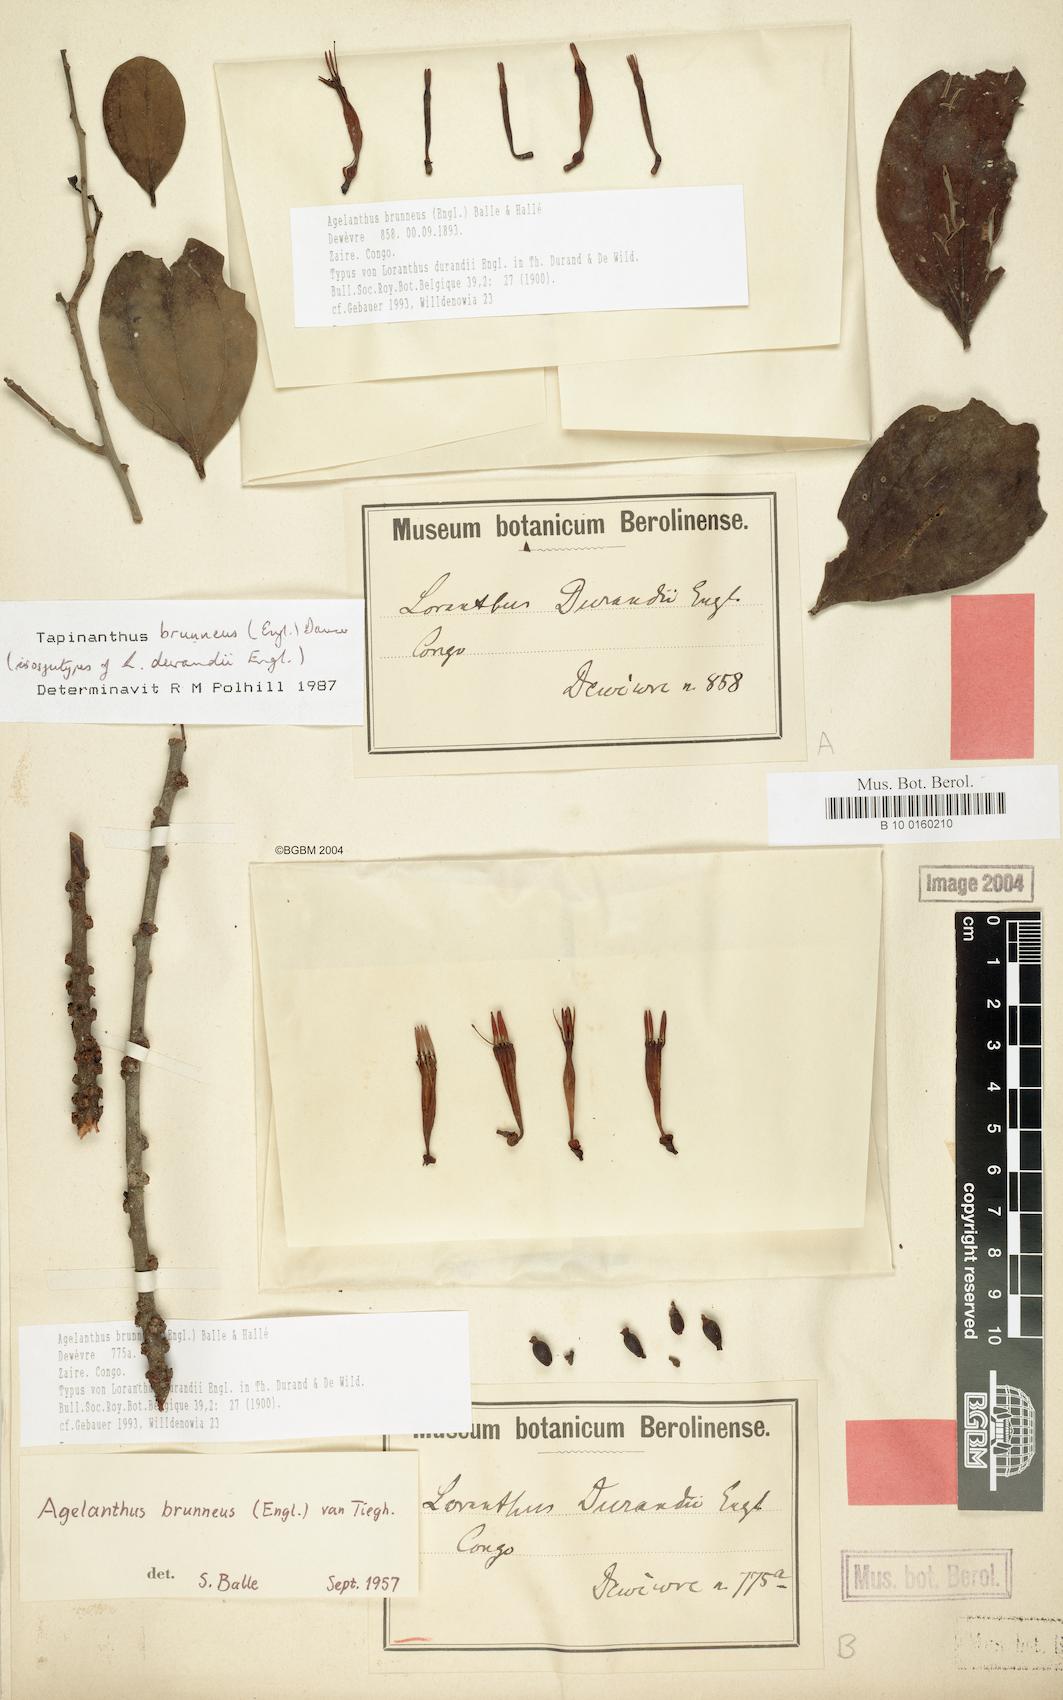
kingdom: Plantae
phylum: Tracheophyta
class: Magnoliopsida
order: Santalales
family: Loranthaceae
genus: Agelanthus
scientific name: Agelanthus brunneus
